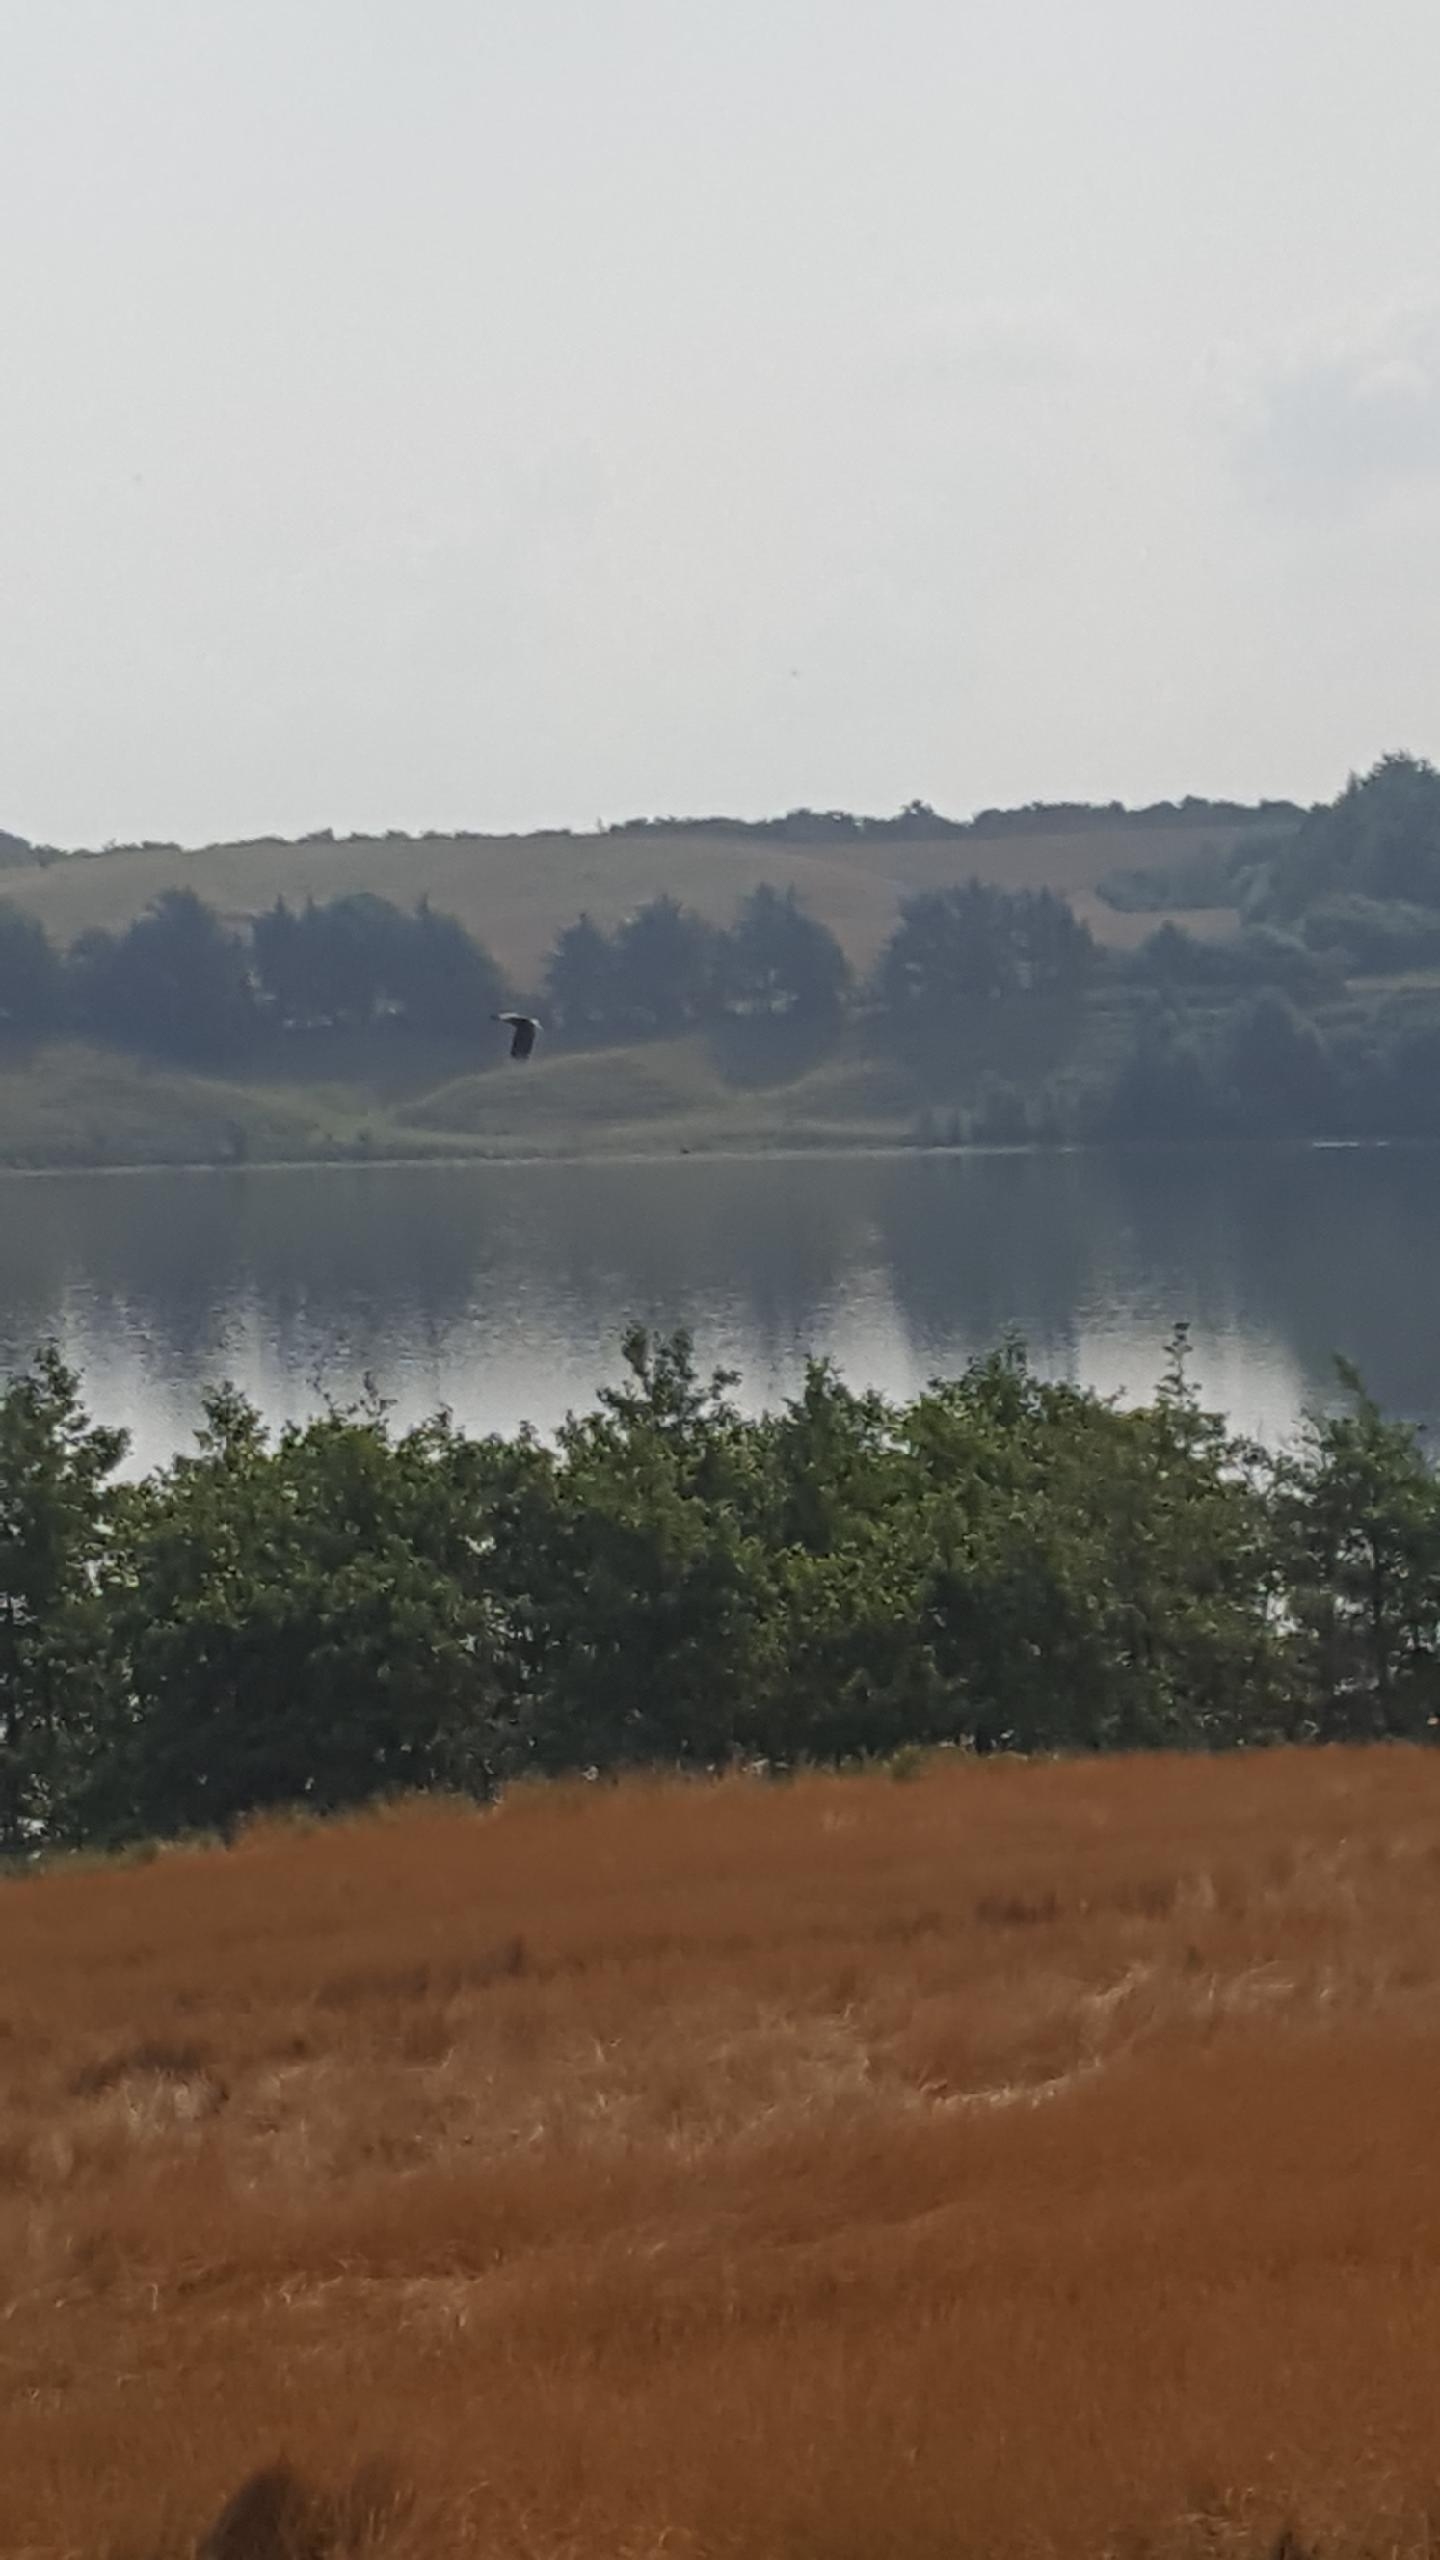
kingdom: Animalia
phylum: Chordata
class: Aves
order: Accipitriformes
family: Accipitridae
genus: Haliaeetus
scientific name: Haliaeetus albicilla
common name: Havørn
